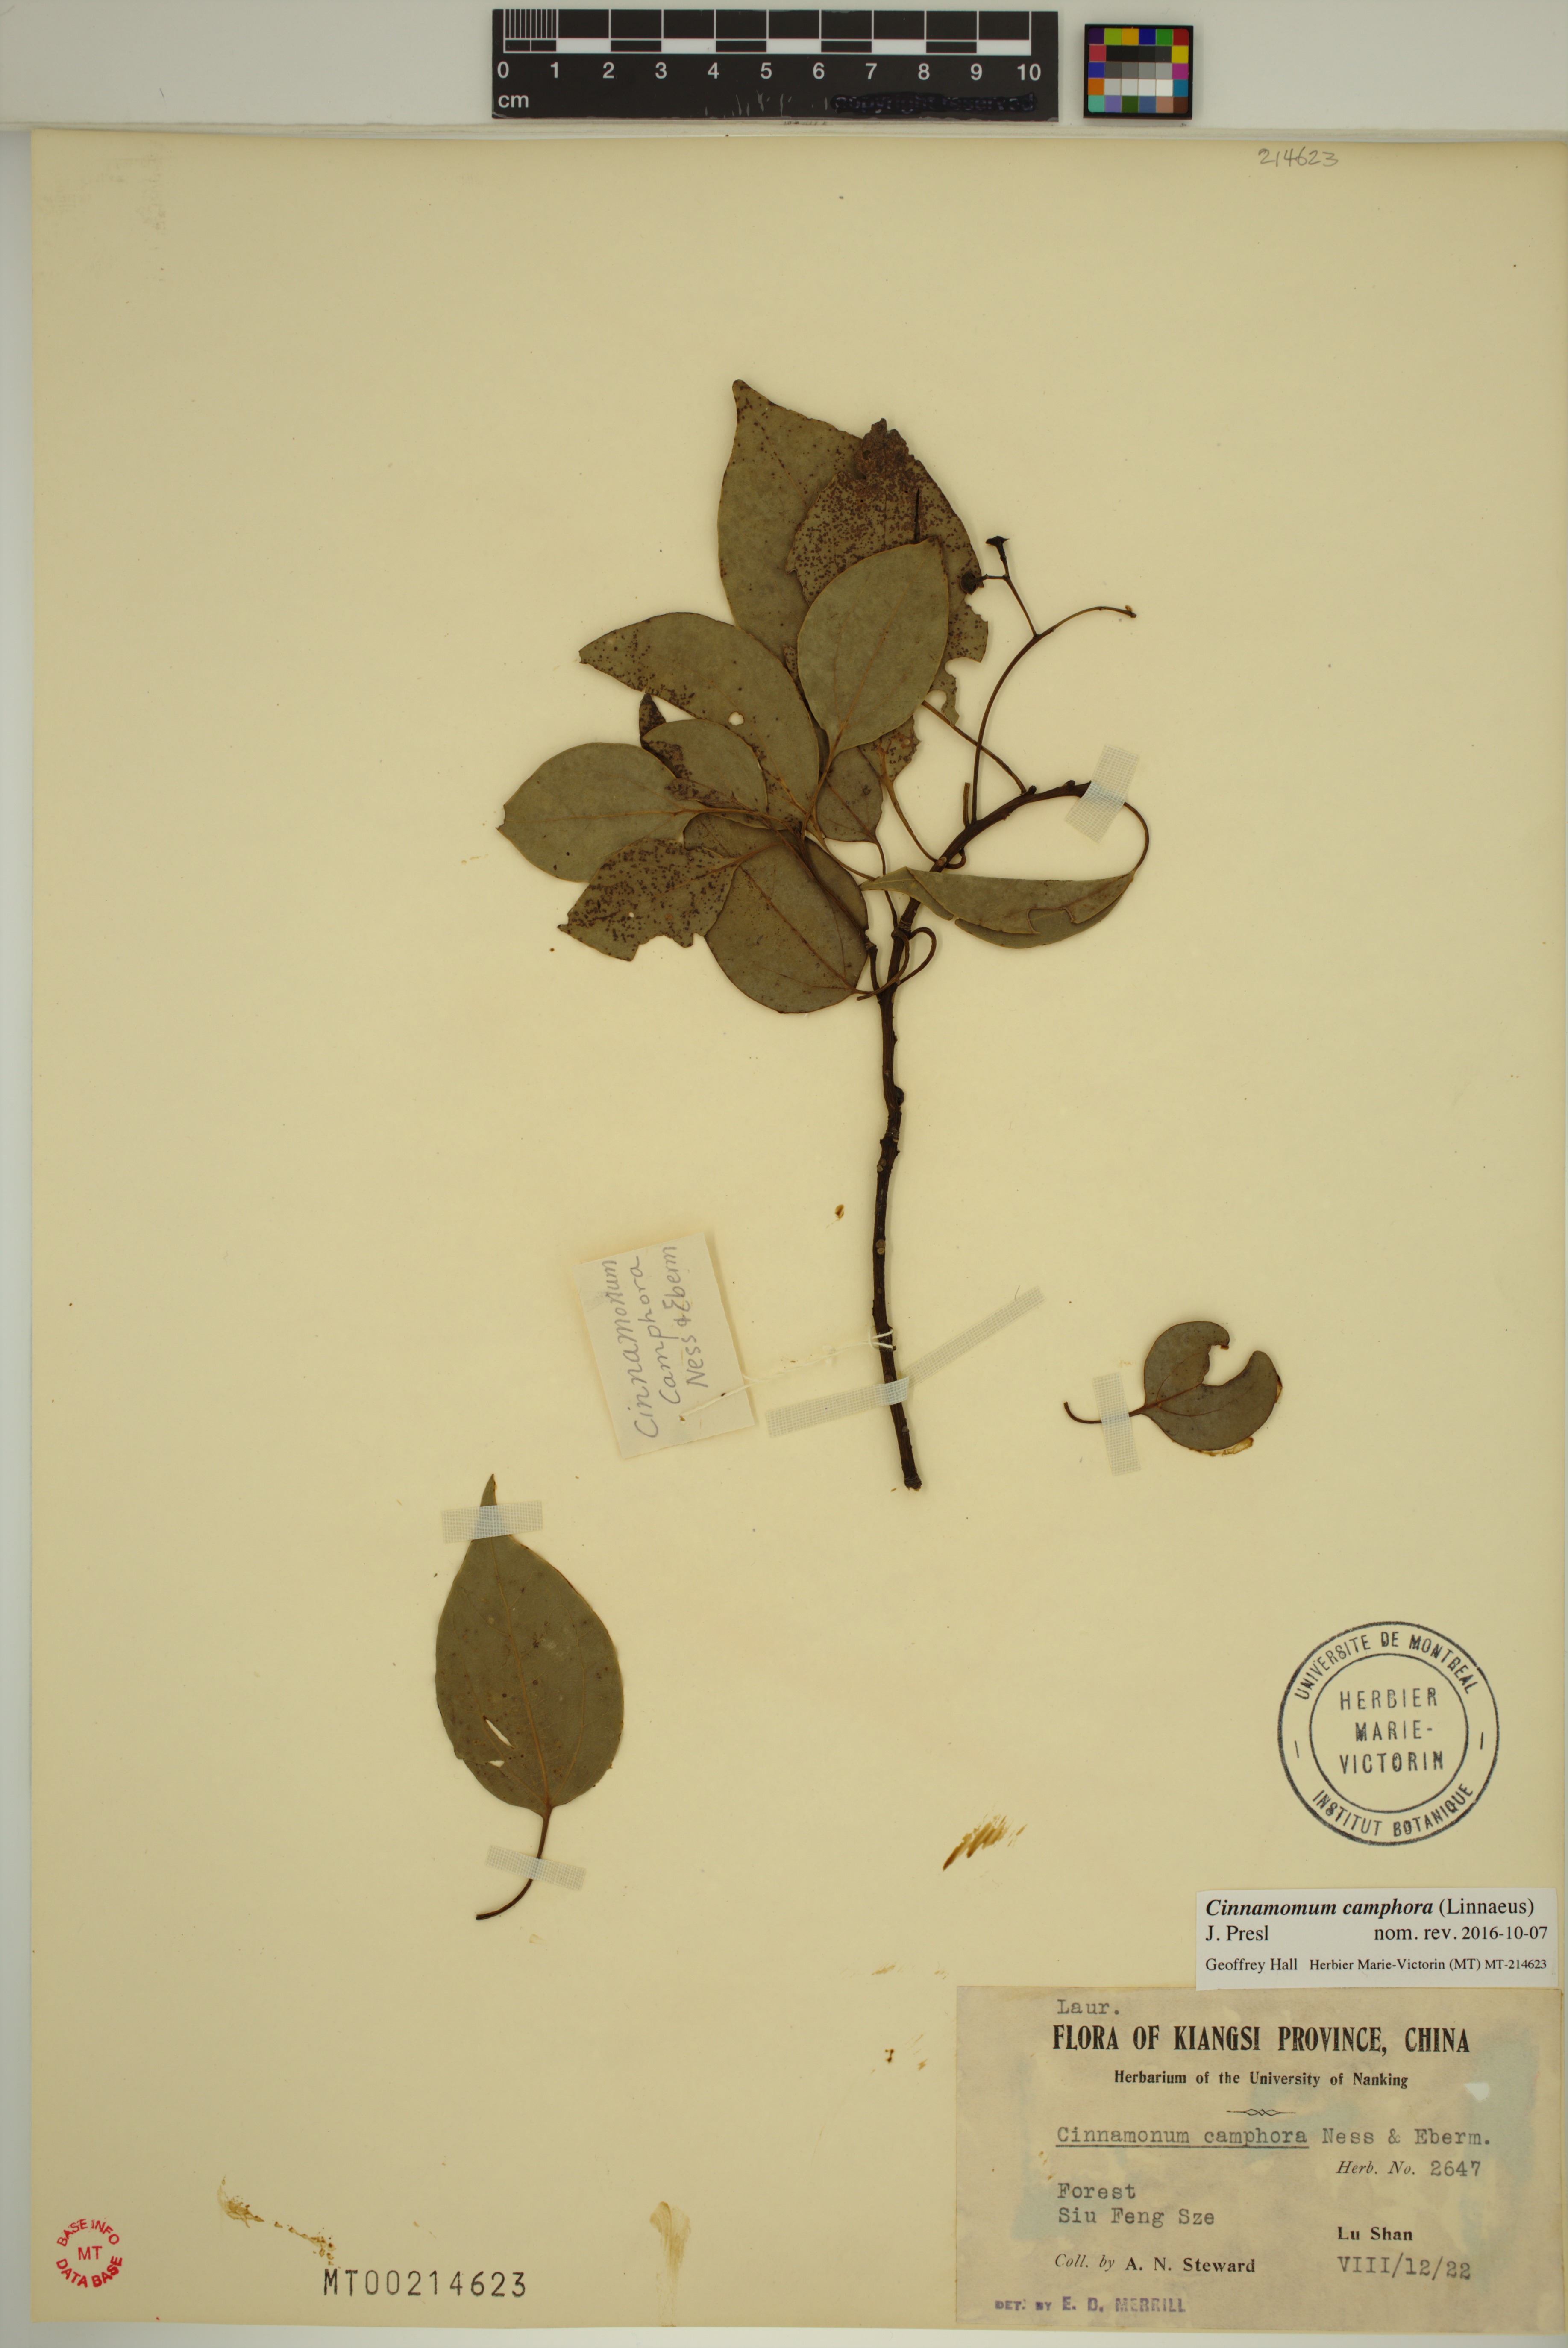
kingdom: Plantae
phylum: Tracheophyta
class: Magnoliopsida
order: Laurales
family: Lauraceae
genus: Cinnamomum
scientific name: Cinnamomum camphora
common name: Camphortree
